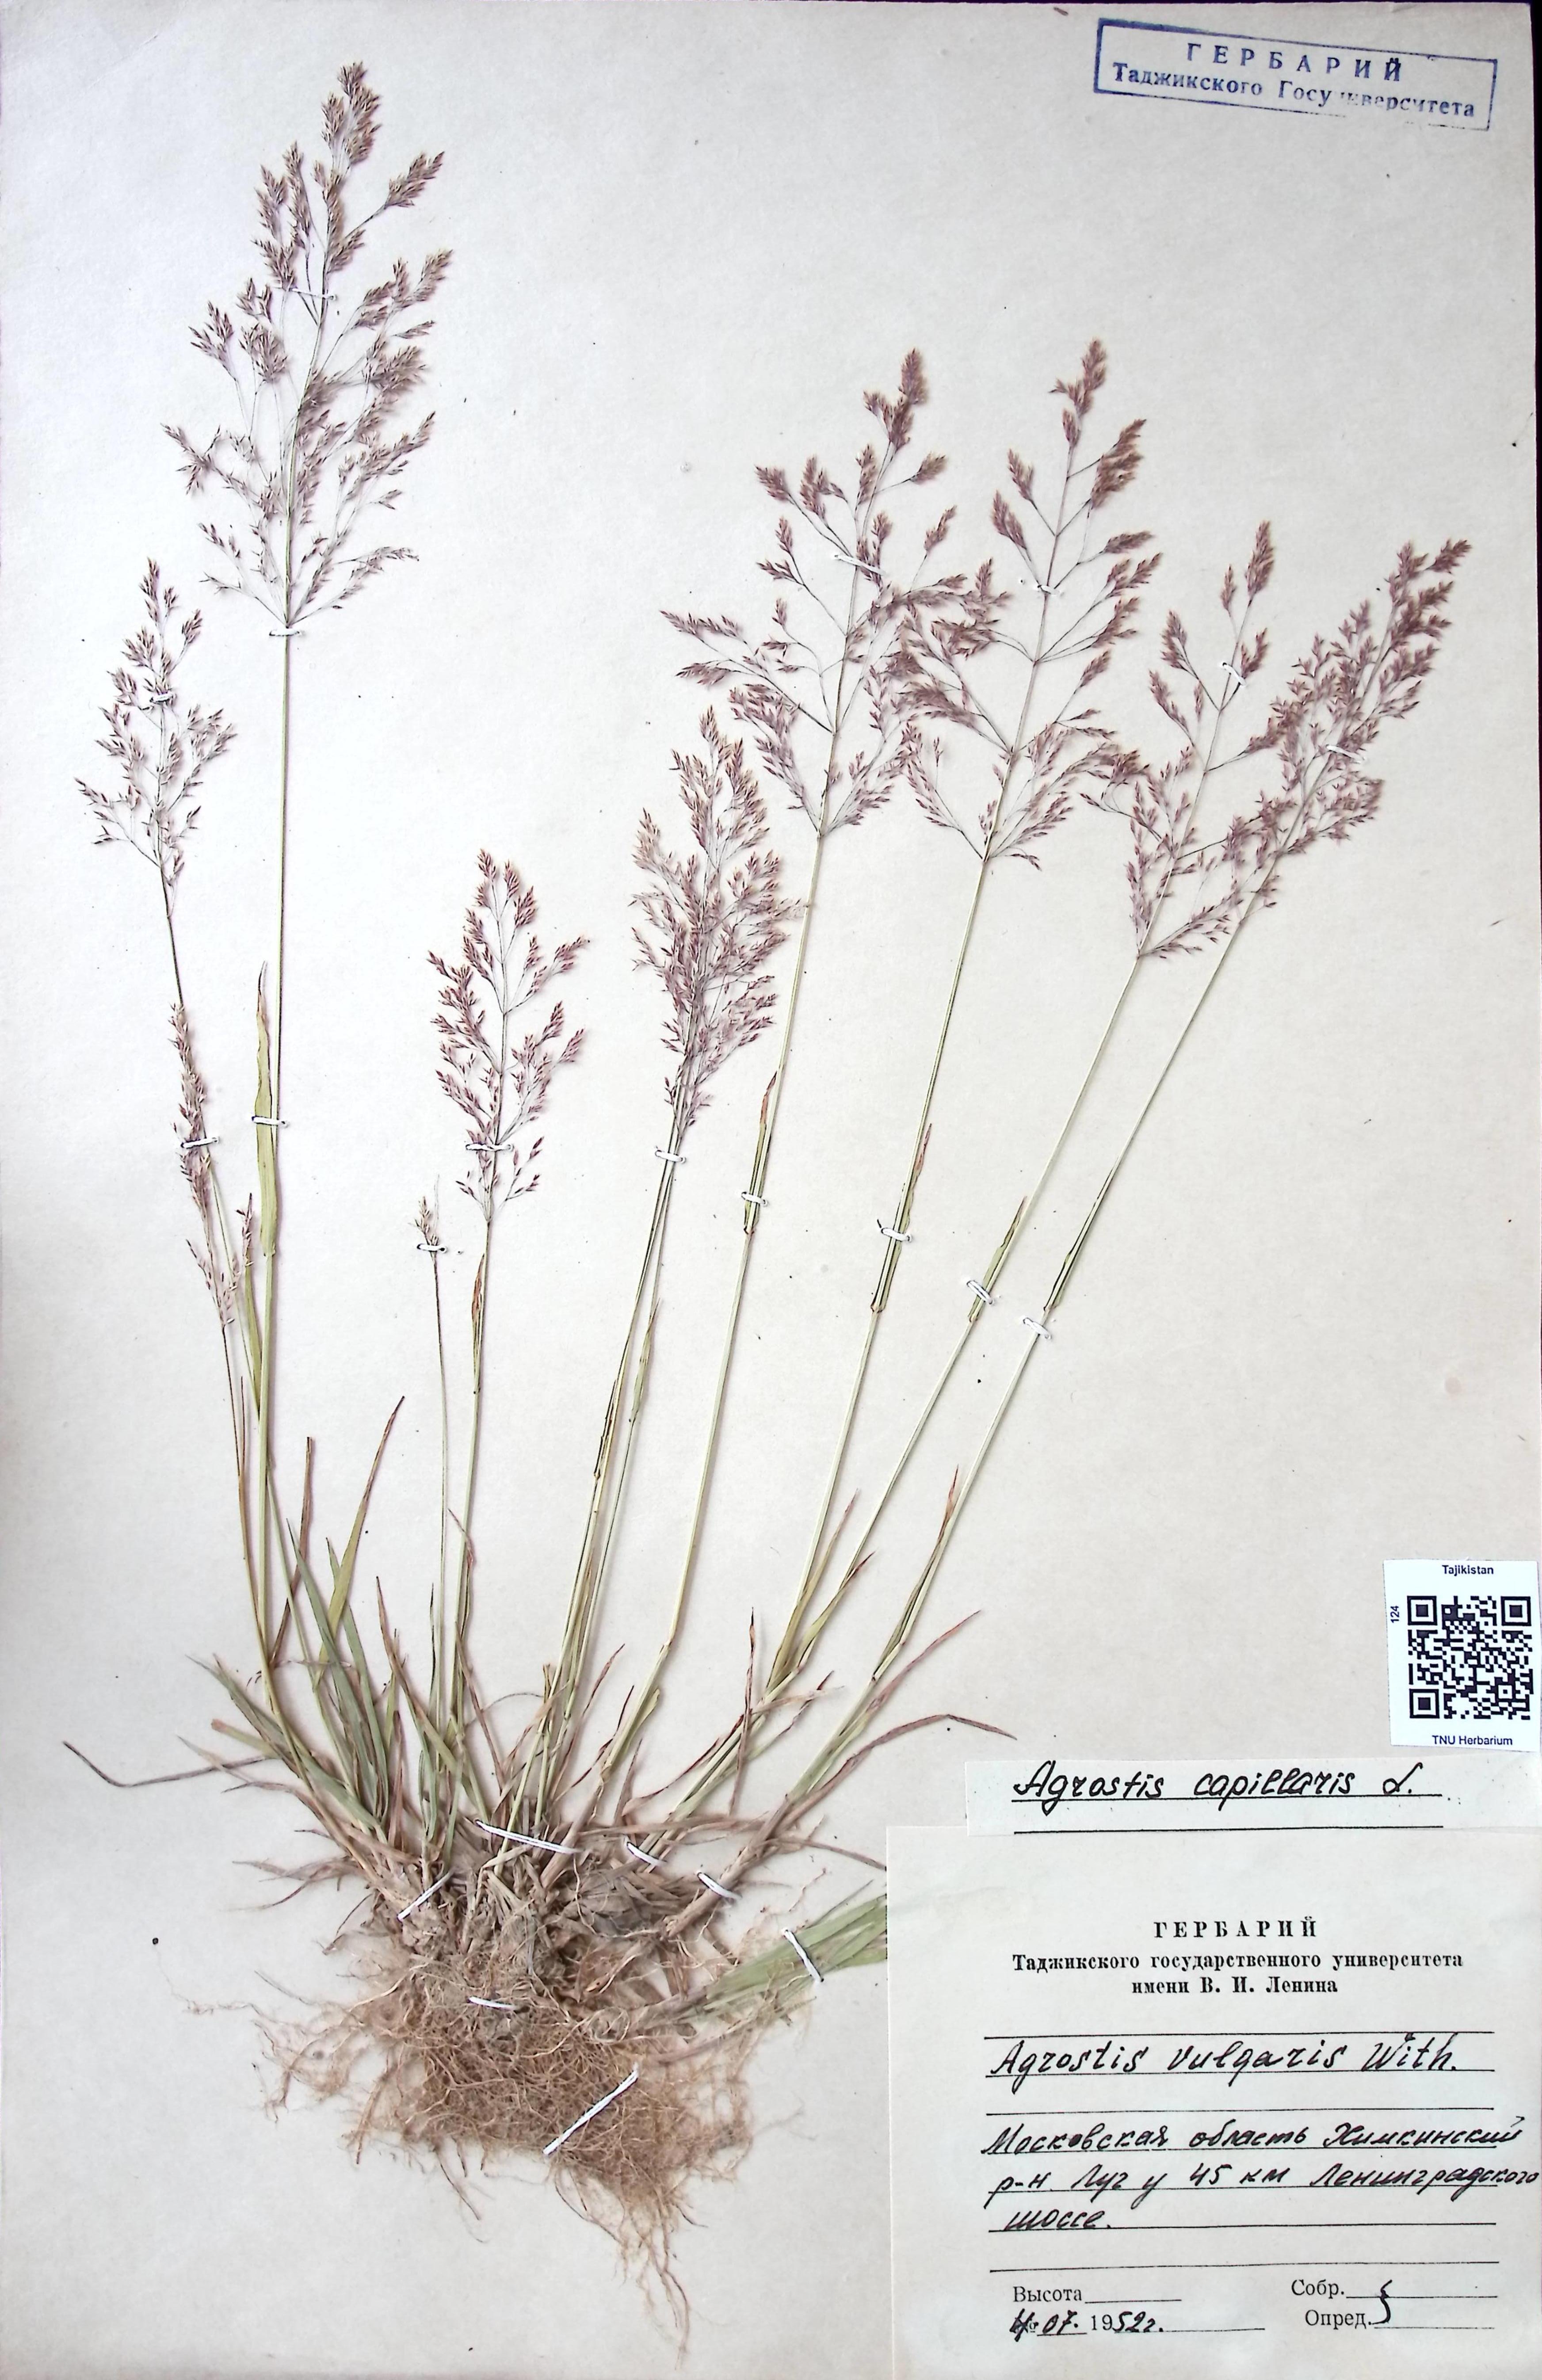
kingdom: Plantae
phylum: Tracheophyta
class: Liliopsida
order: Poales
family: Poaceae
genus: Agrostis
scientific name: Agrostis capillaris
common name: Colonial bentgrass
